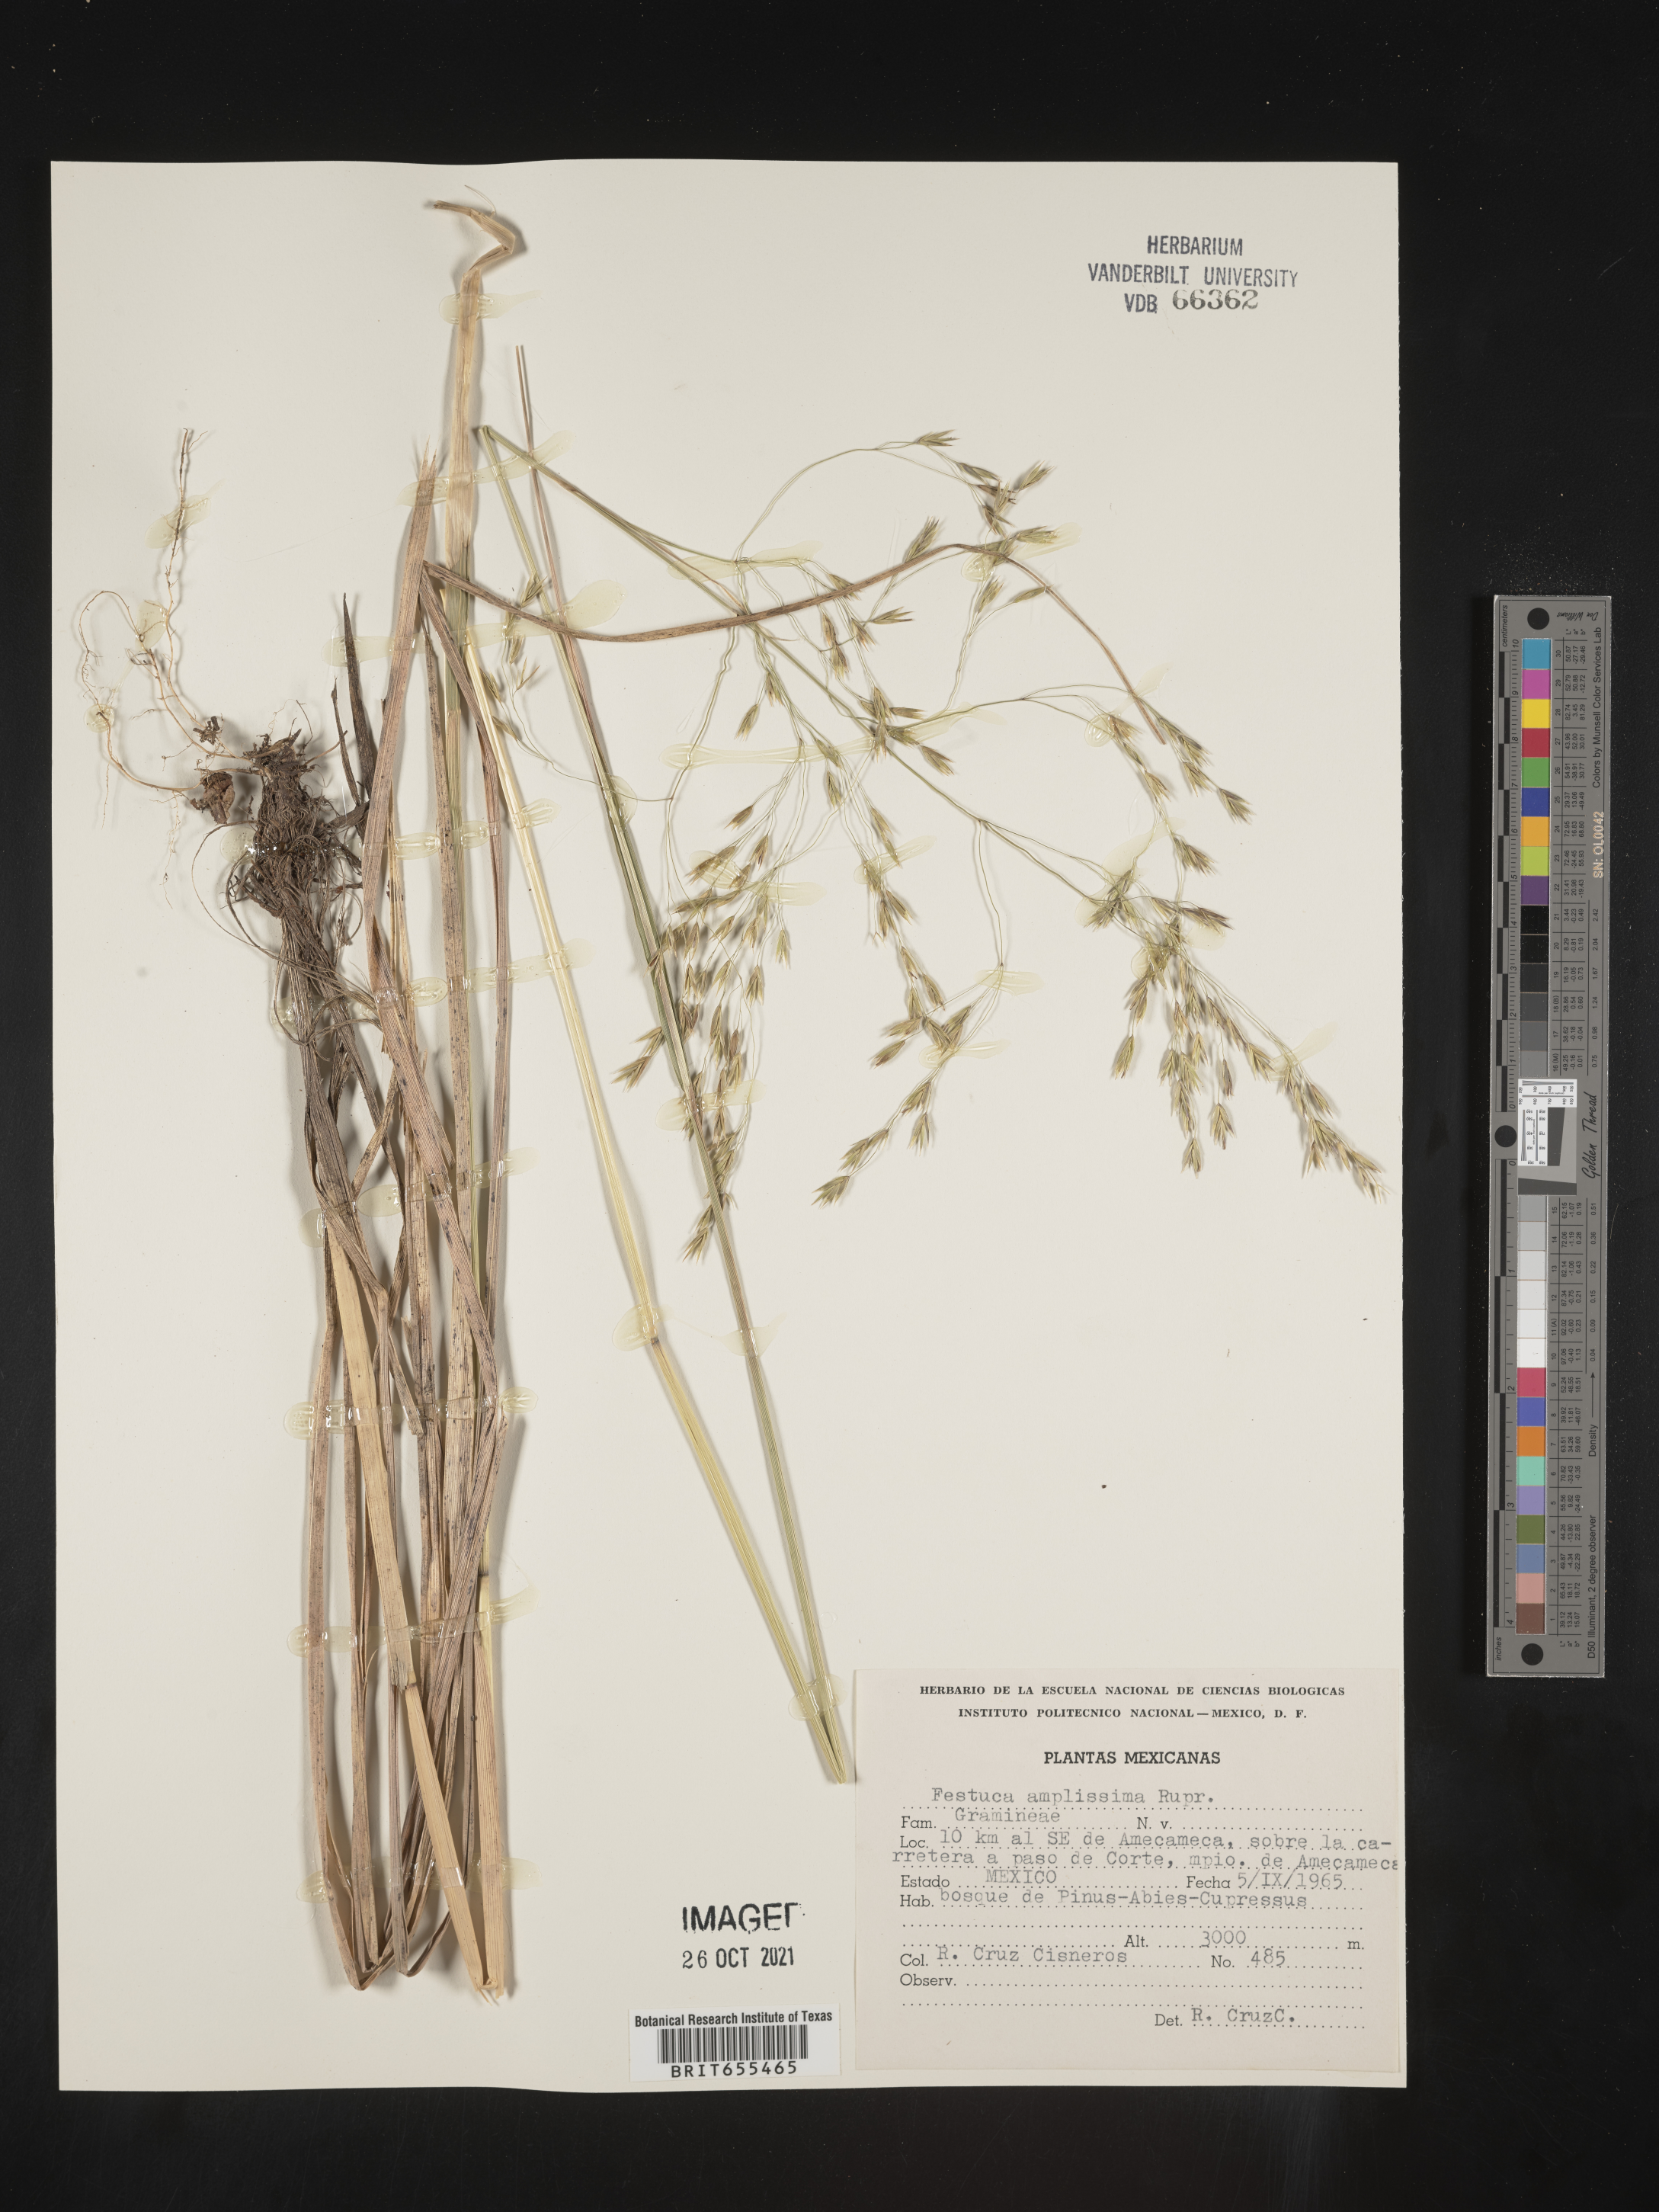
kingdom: Plantae
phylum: Tracheophyta
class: Liliopsida
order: Poales
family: Poaceae
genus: Festuca
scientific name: Festuca
